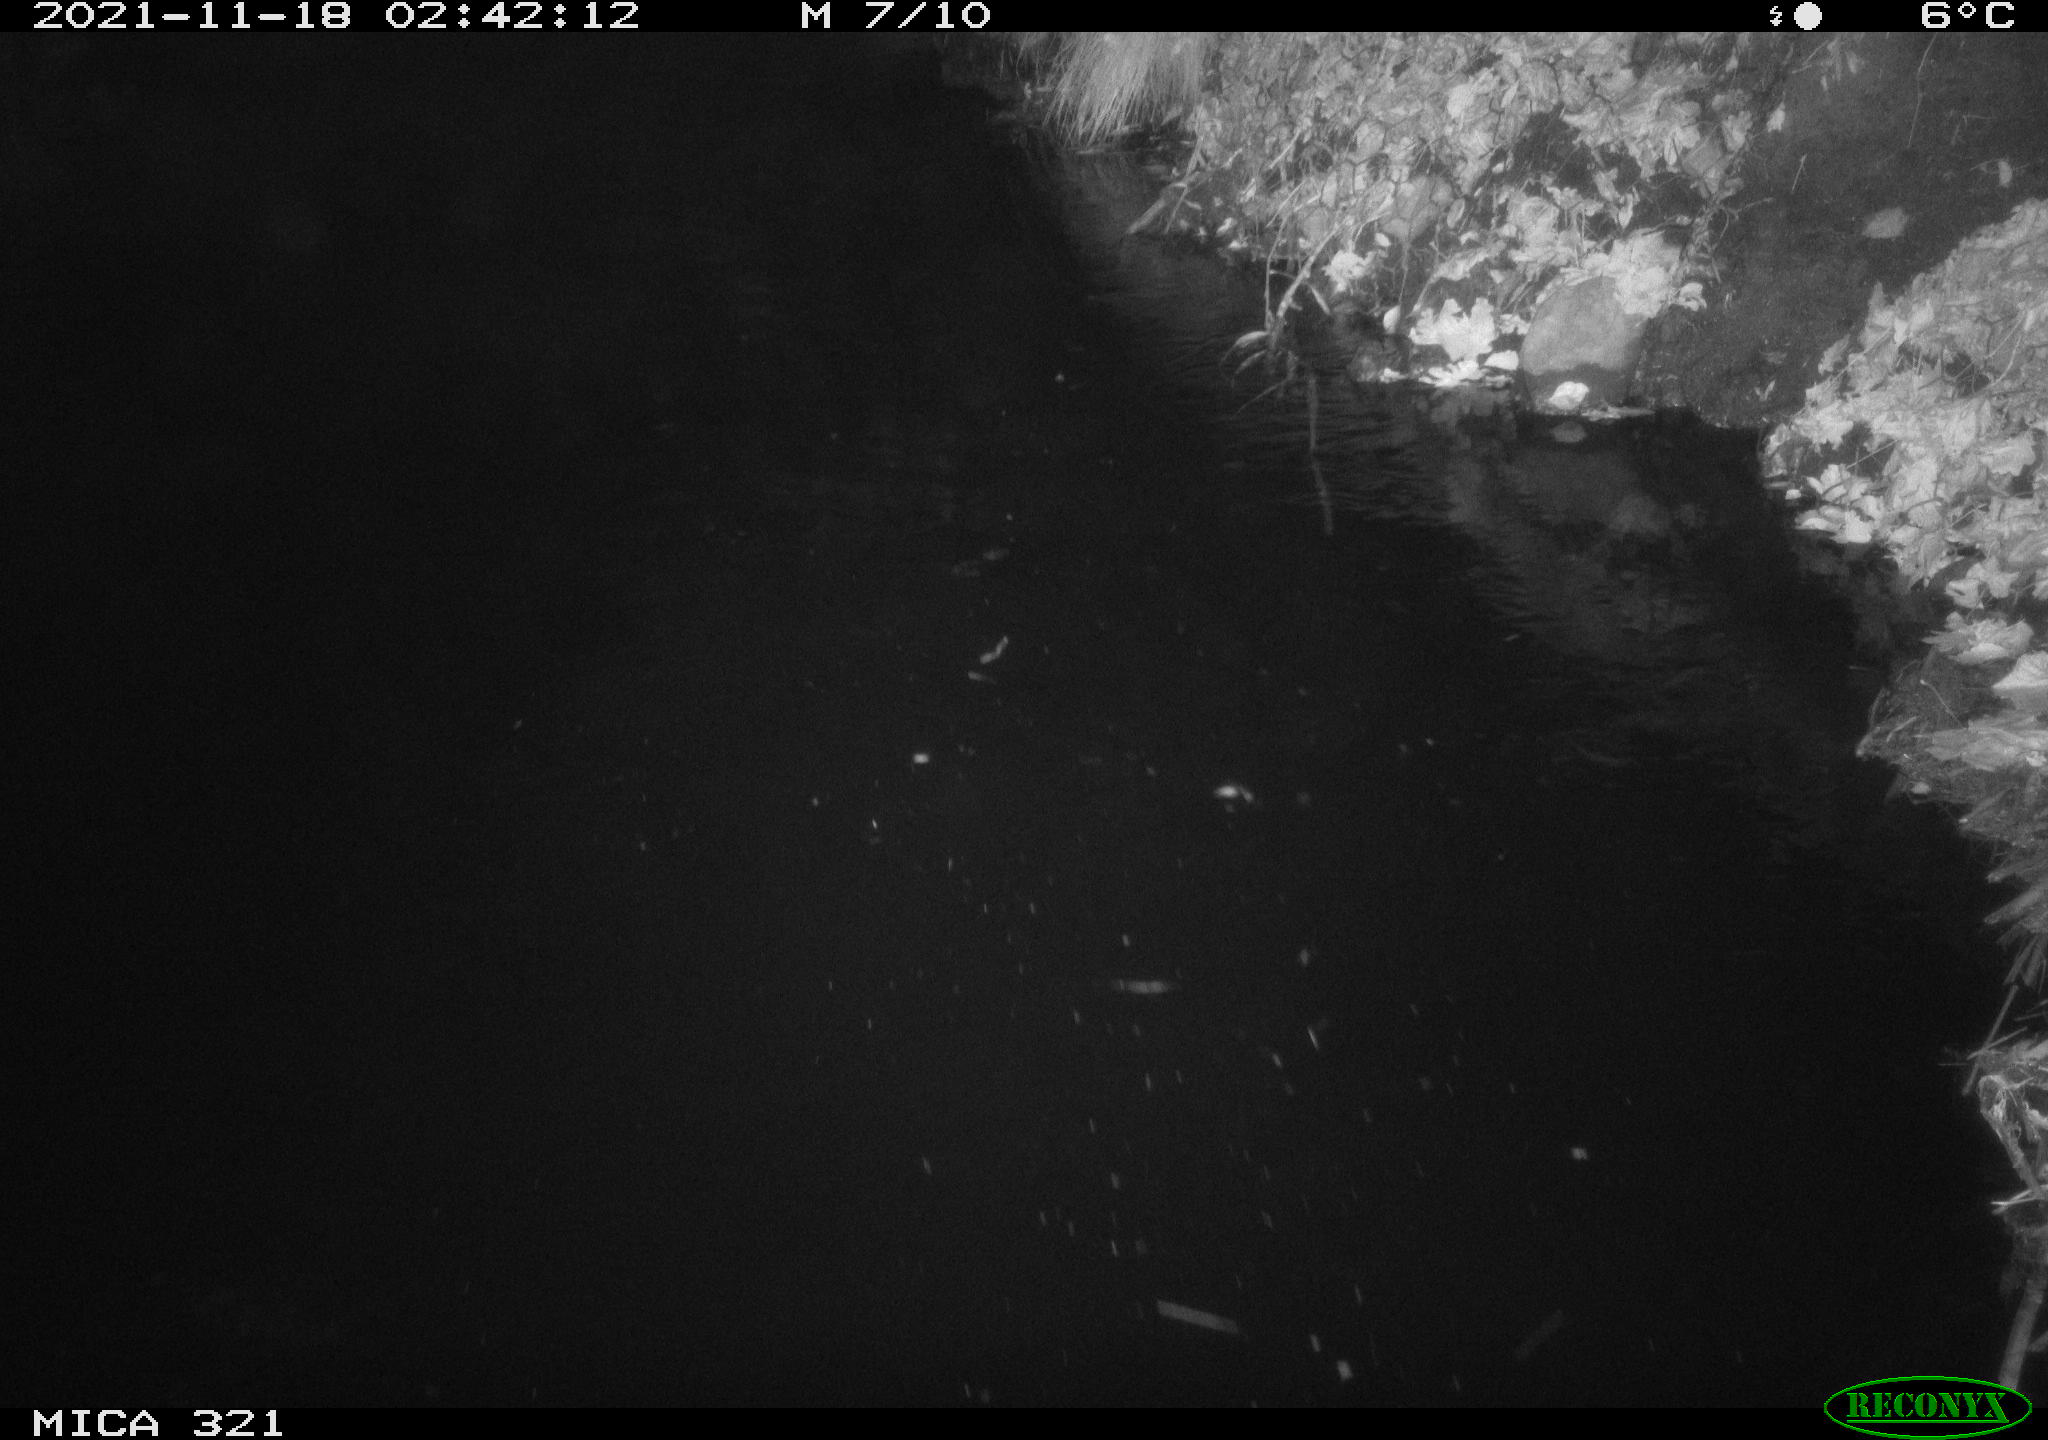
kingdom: Animalia
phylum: Chordata
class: Mammalia
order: Rodentia
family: Muridae
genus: Rattus
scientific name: Rattus norvegicus
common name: Brown rat
